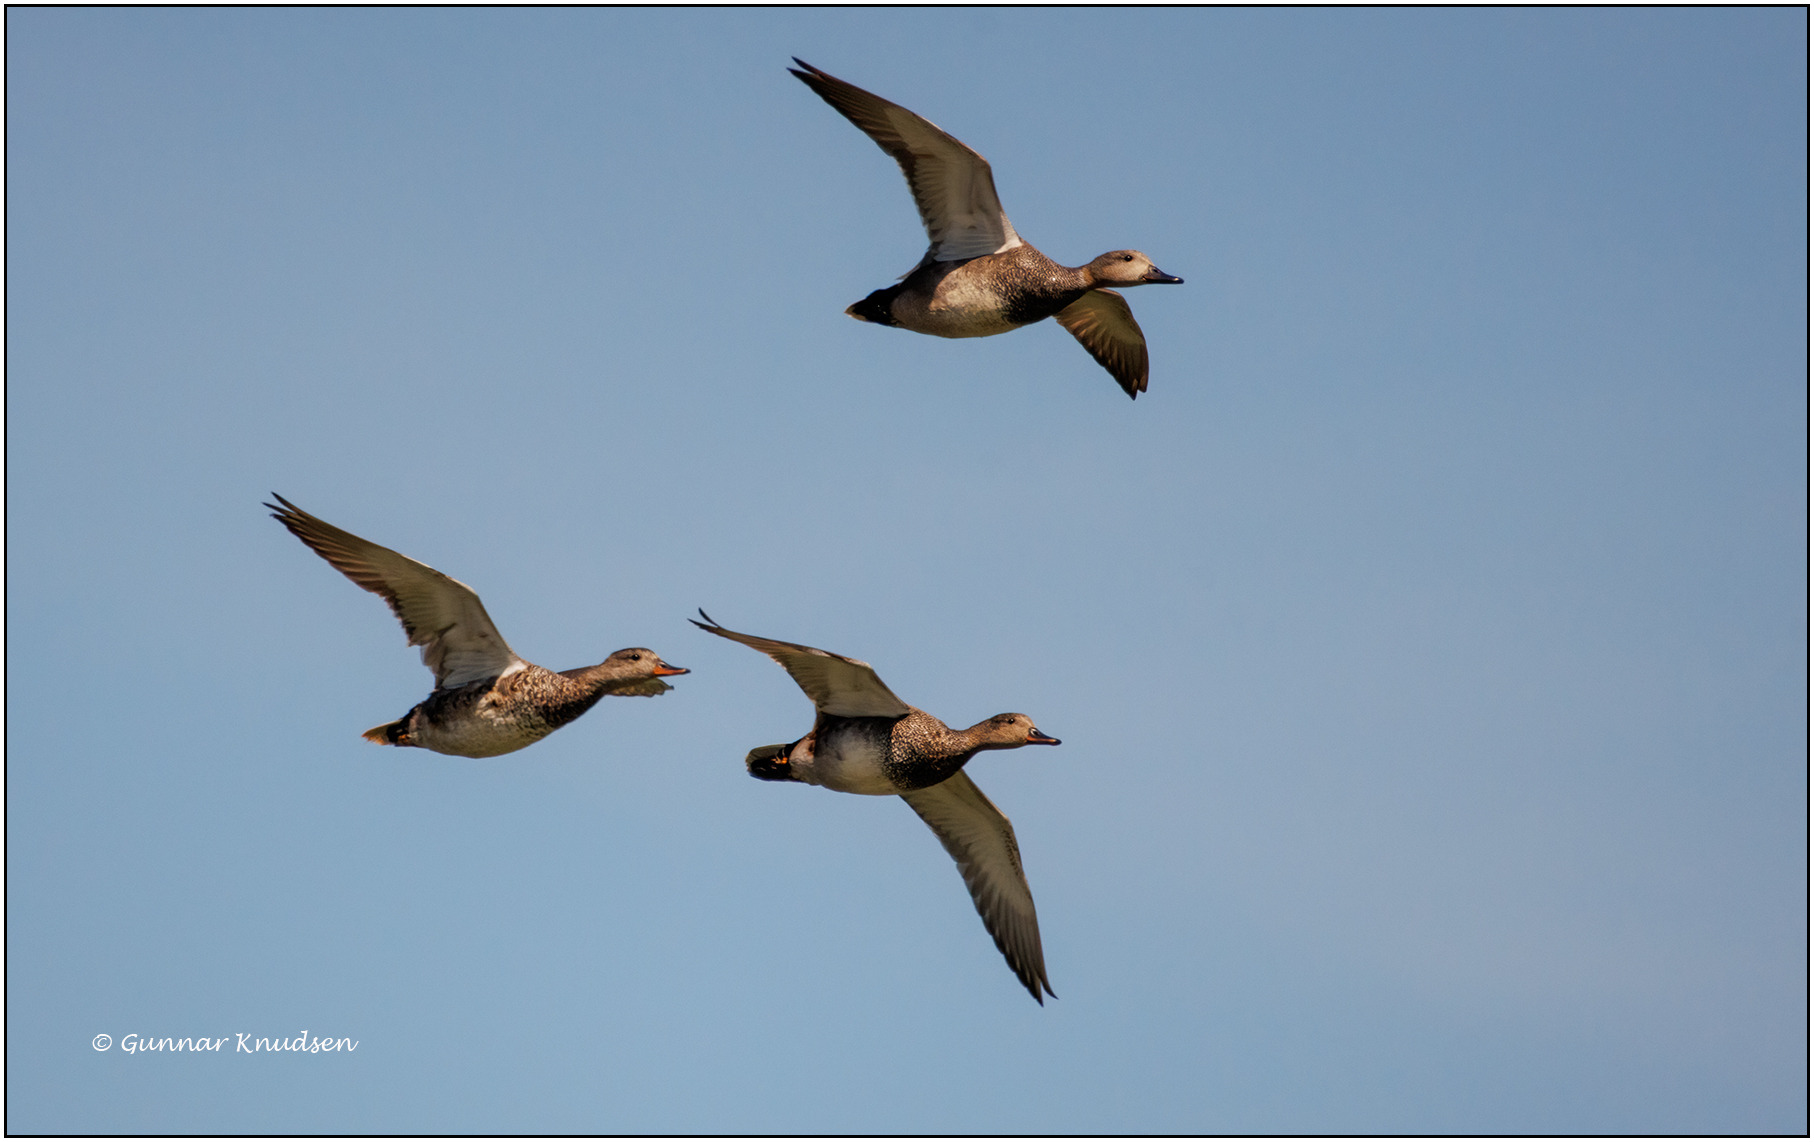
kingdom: Animalia
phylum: Chordata
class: Aves
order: Anseriformes
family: Anatidae
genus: Mareca
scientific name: Mareca strepera
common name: Knarand
